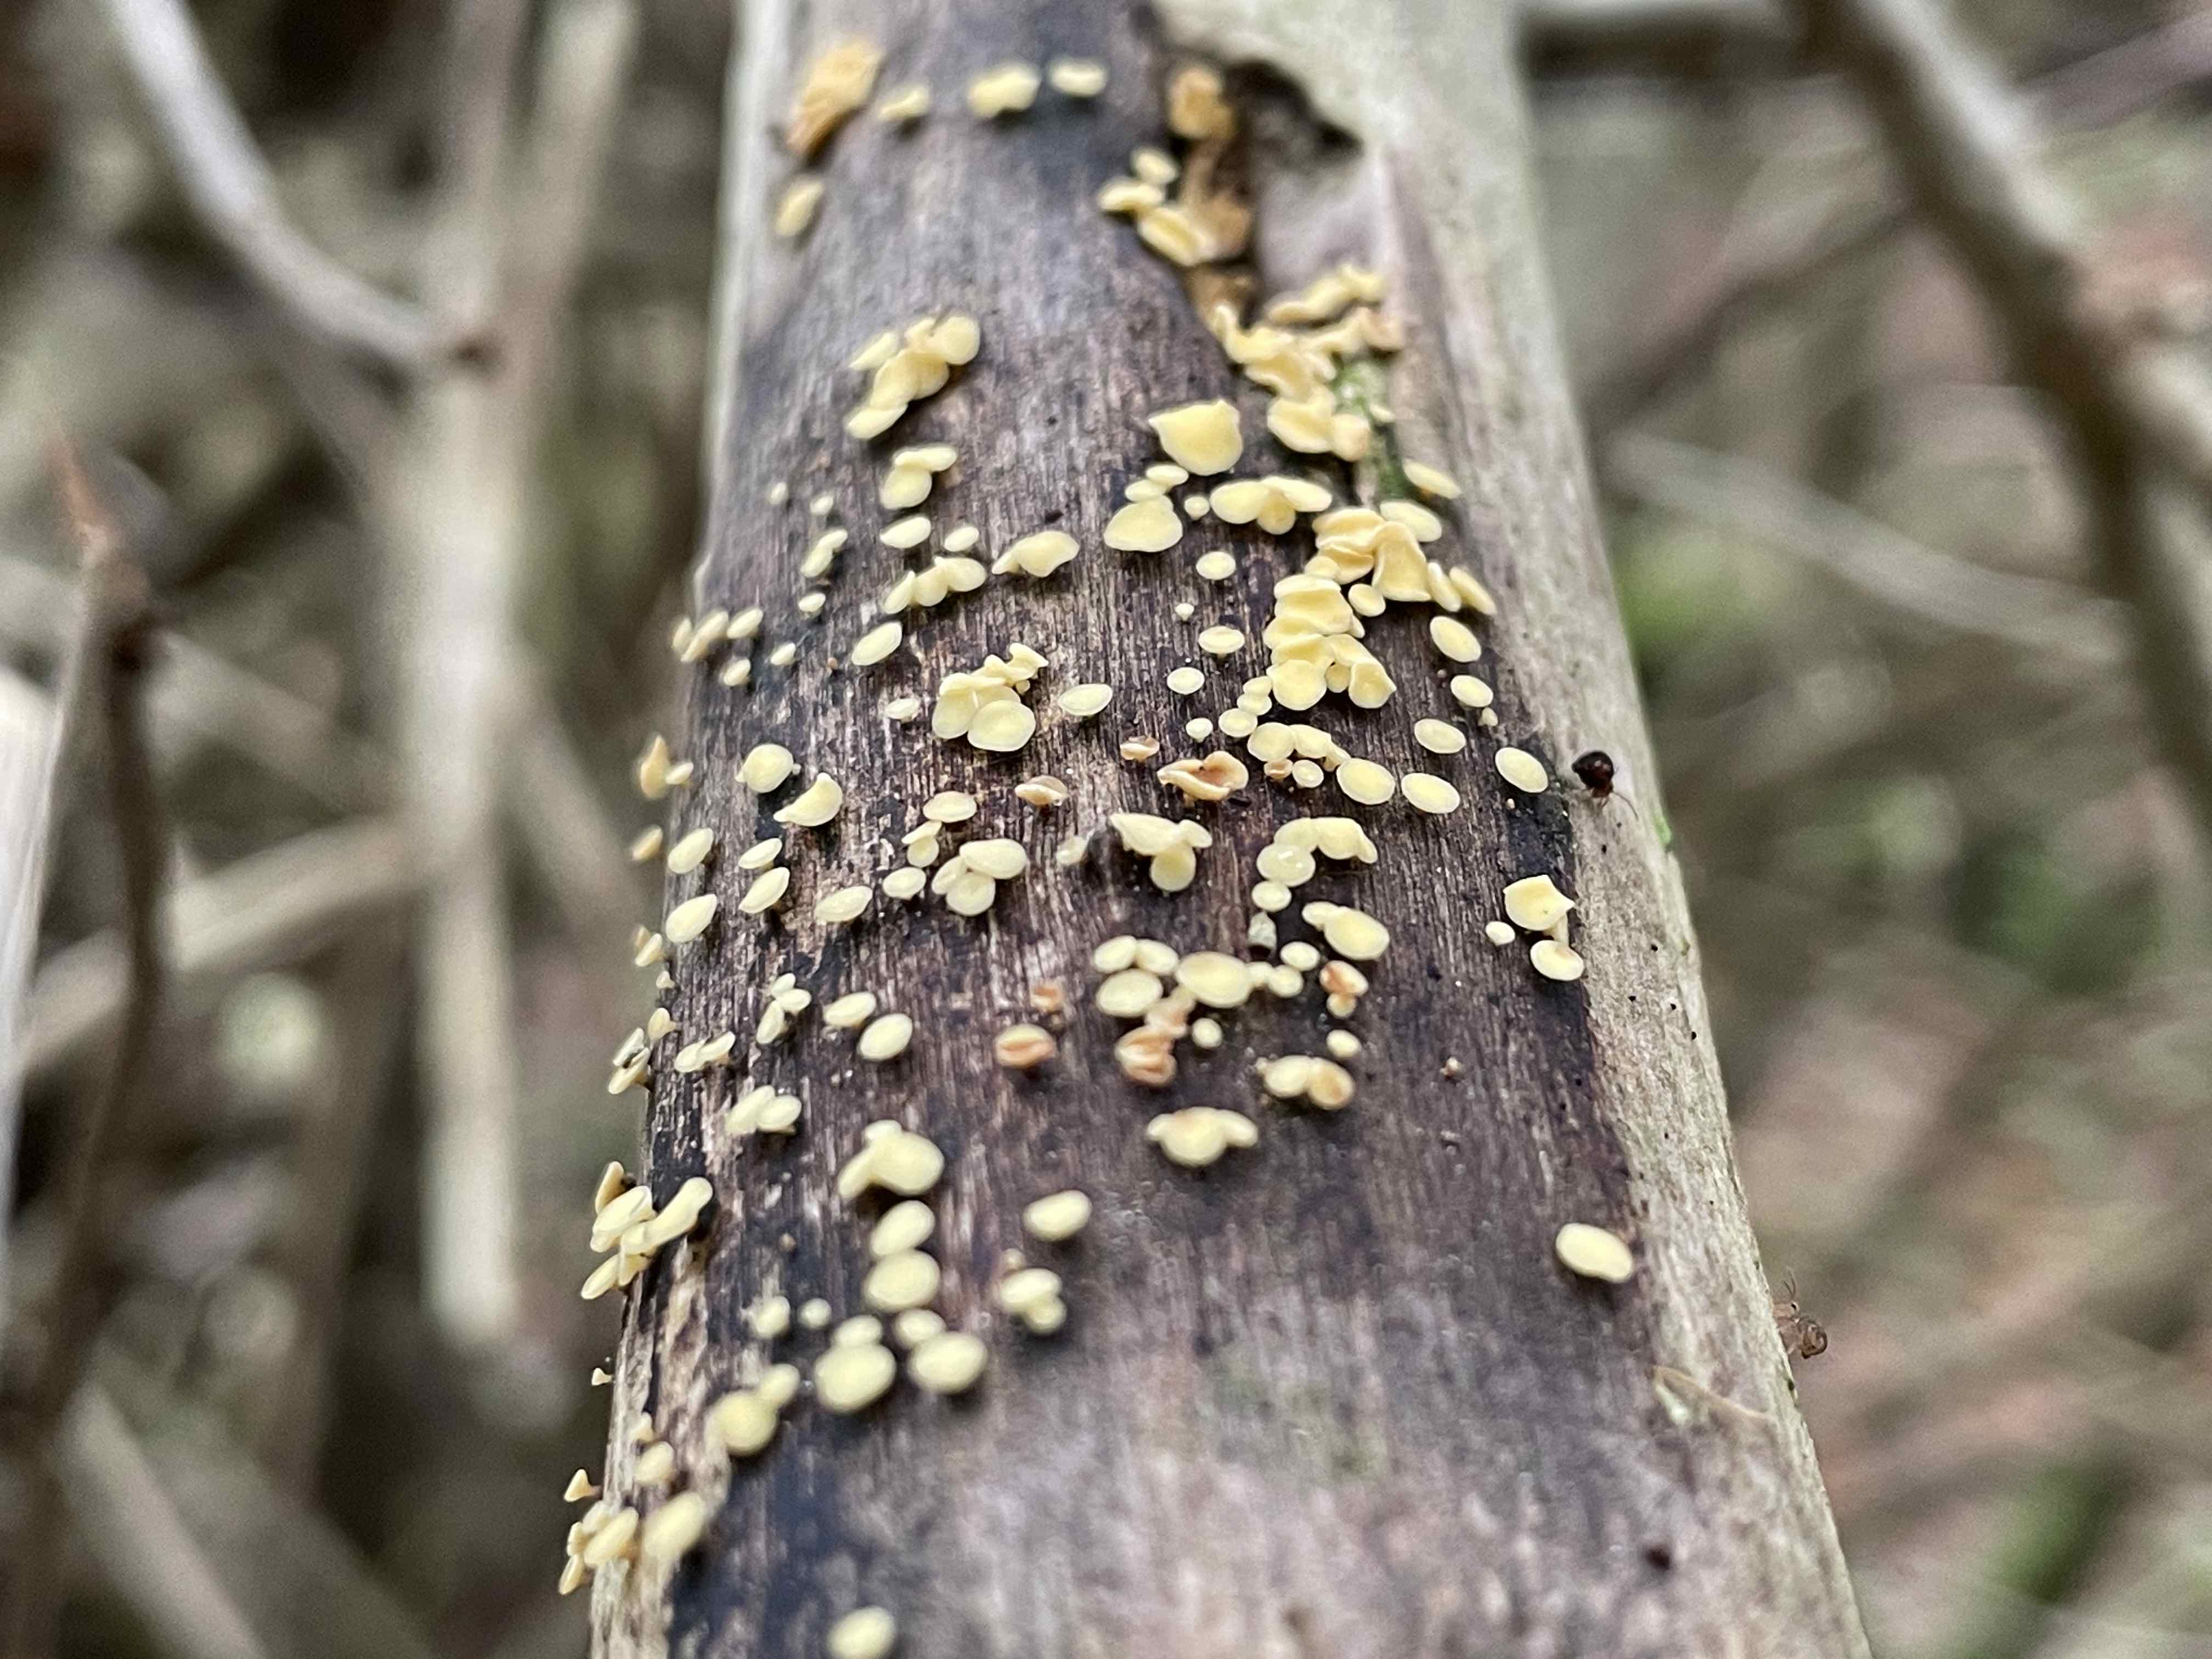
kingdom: Fungi
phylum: Ascomycota
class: Leotiomycetes
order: Helotiales
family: Helotiaceae
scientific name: Helotiaceae
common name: stilkskivefamilien
